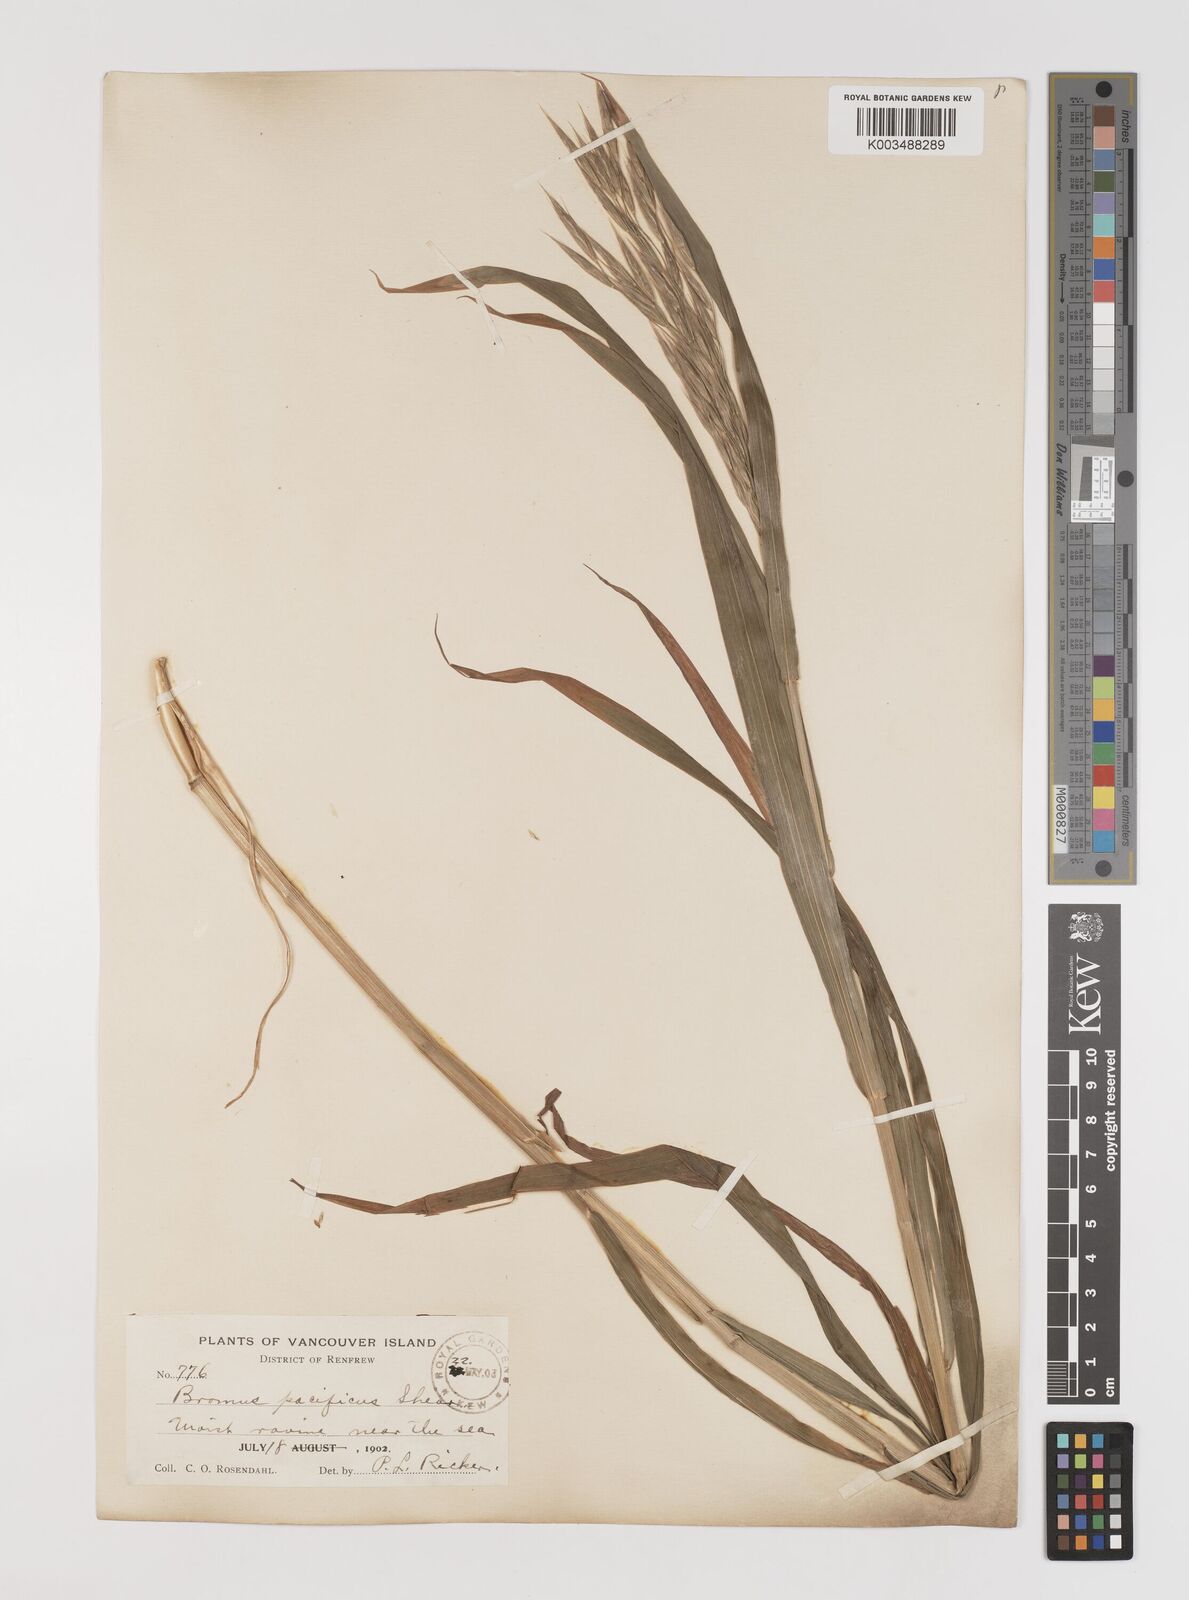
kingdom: Plantae
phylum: Tracheophyta
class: Liliopsida
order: Poales
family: Poaceae
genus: Bromus
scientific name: Bromus pacificus
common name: Pacific brome
